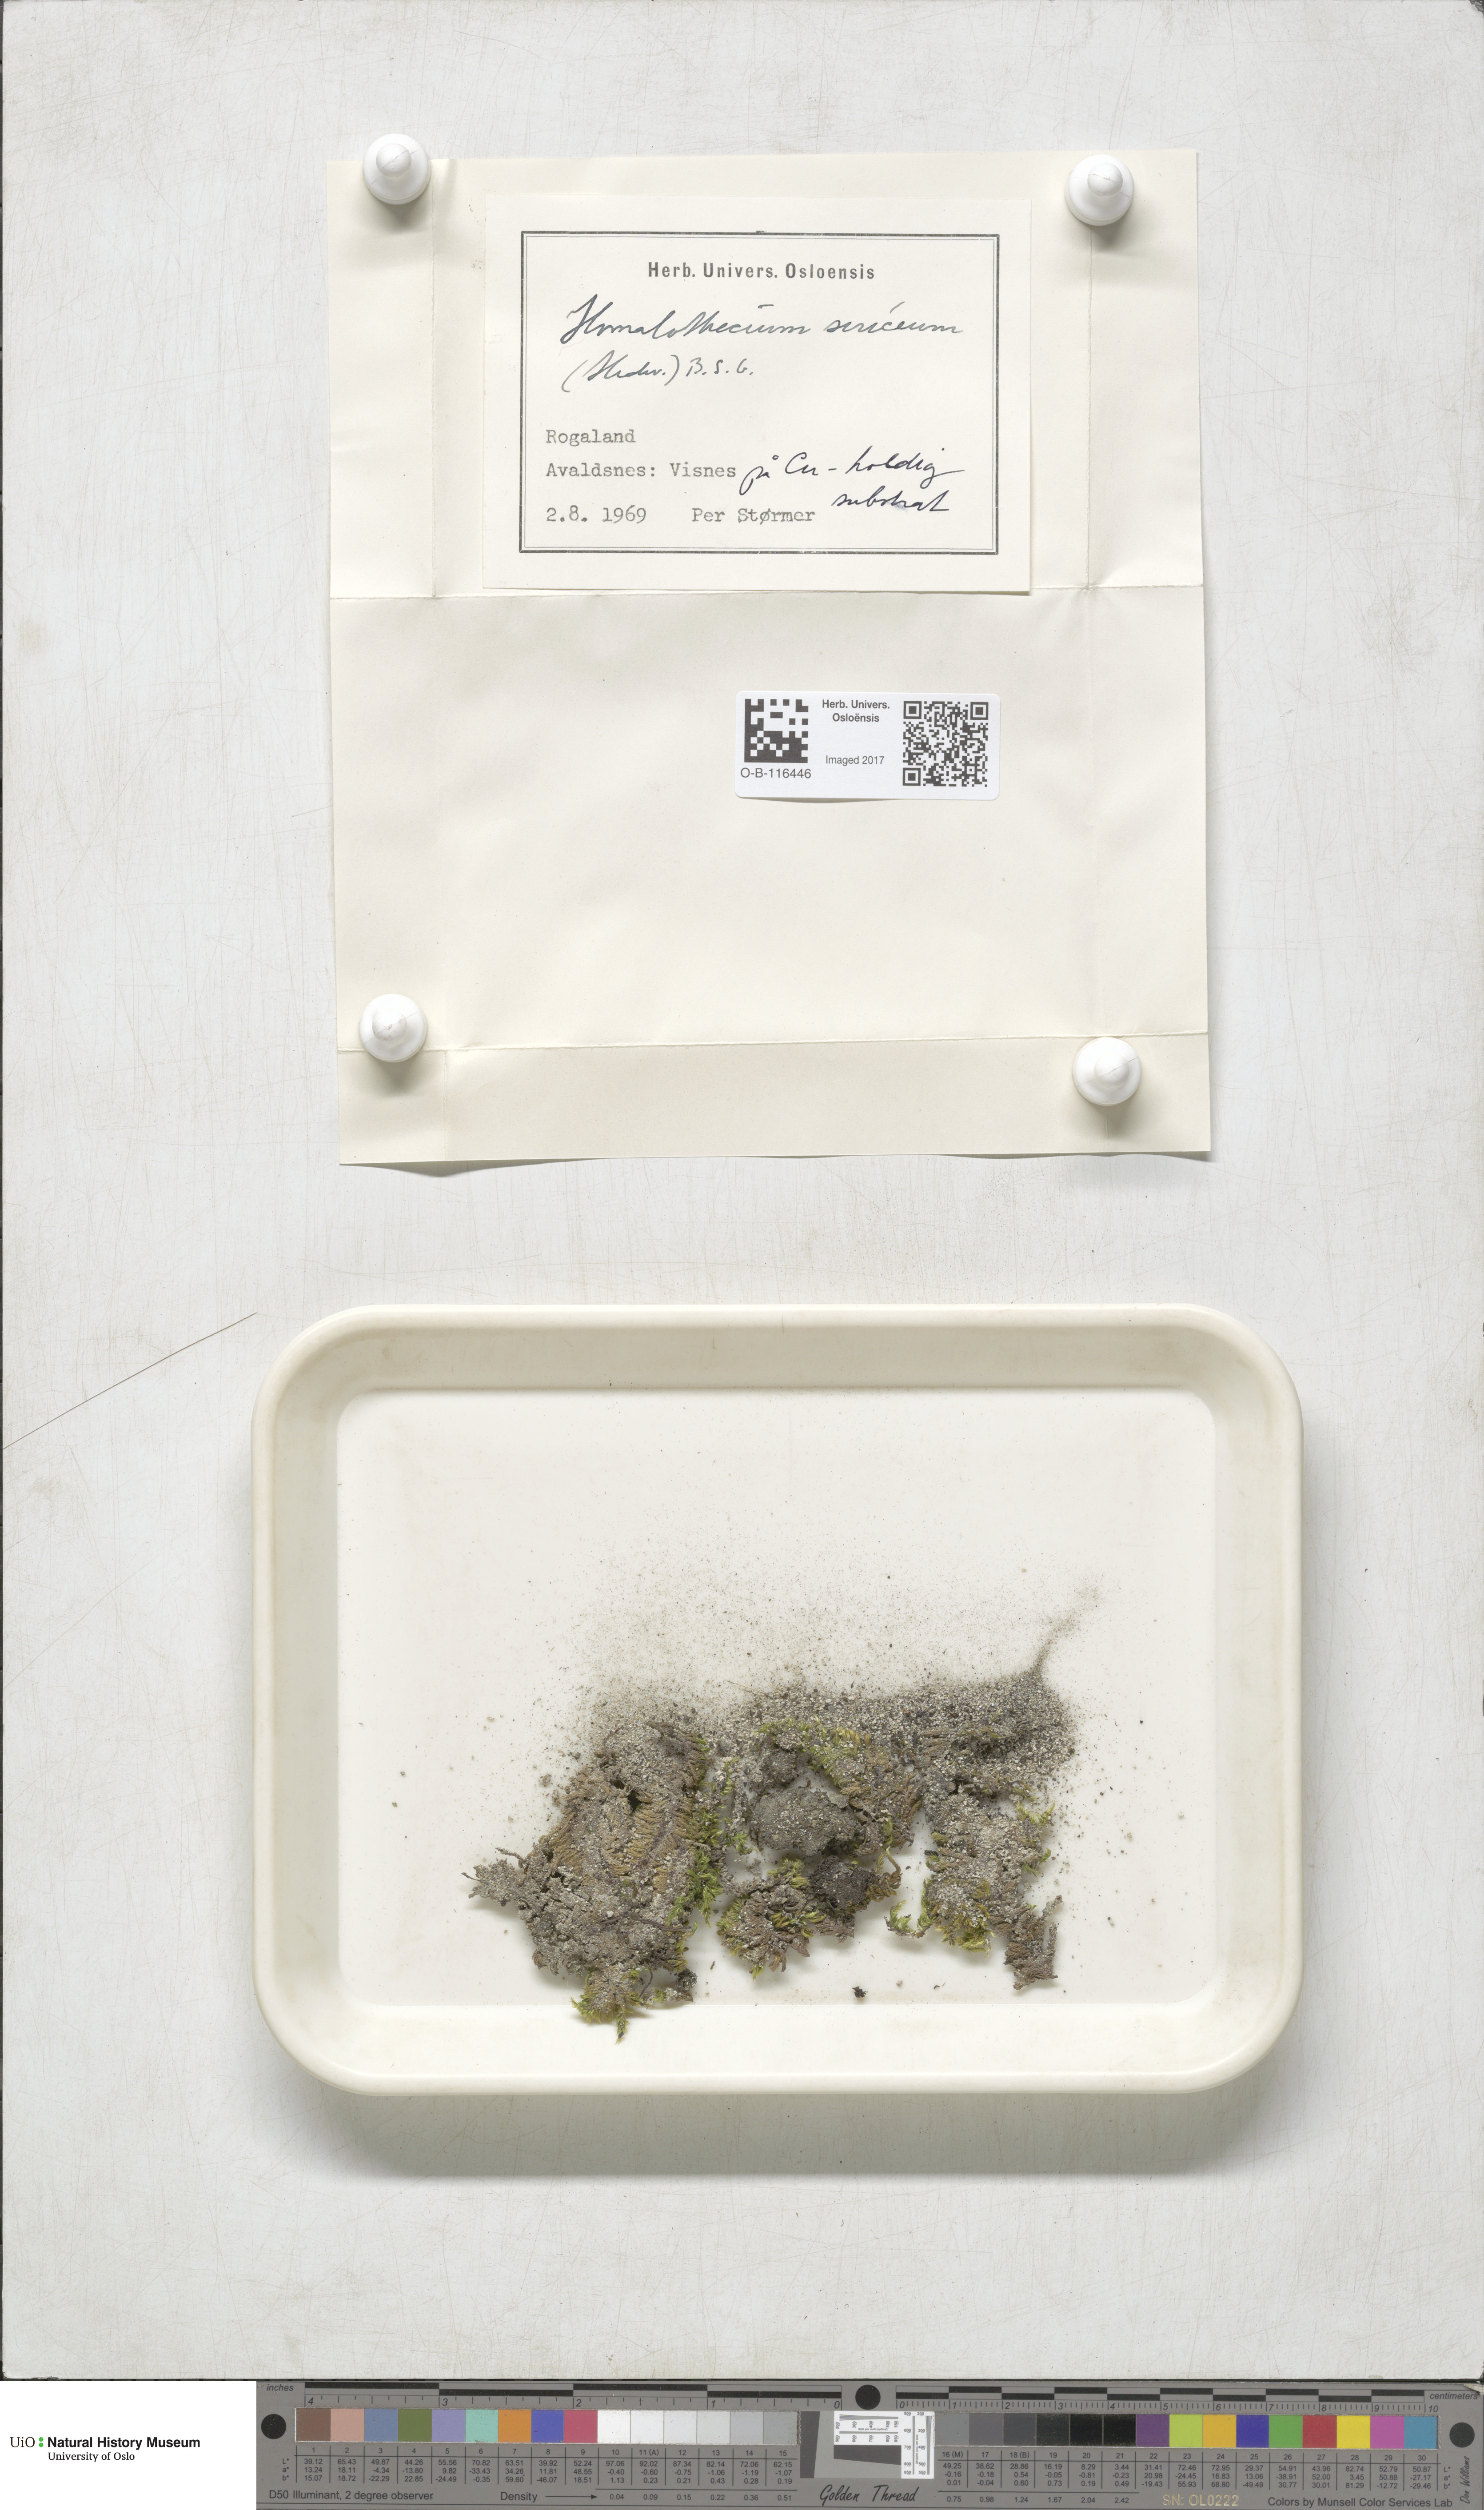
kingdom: Plantae
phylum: Bryophyta
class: Bryopsida
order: Hypnales
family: Brachytheciaceae
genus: Homalothecium
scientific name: Homalothecium sericeum
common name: Silky wall feather-moss
